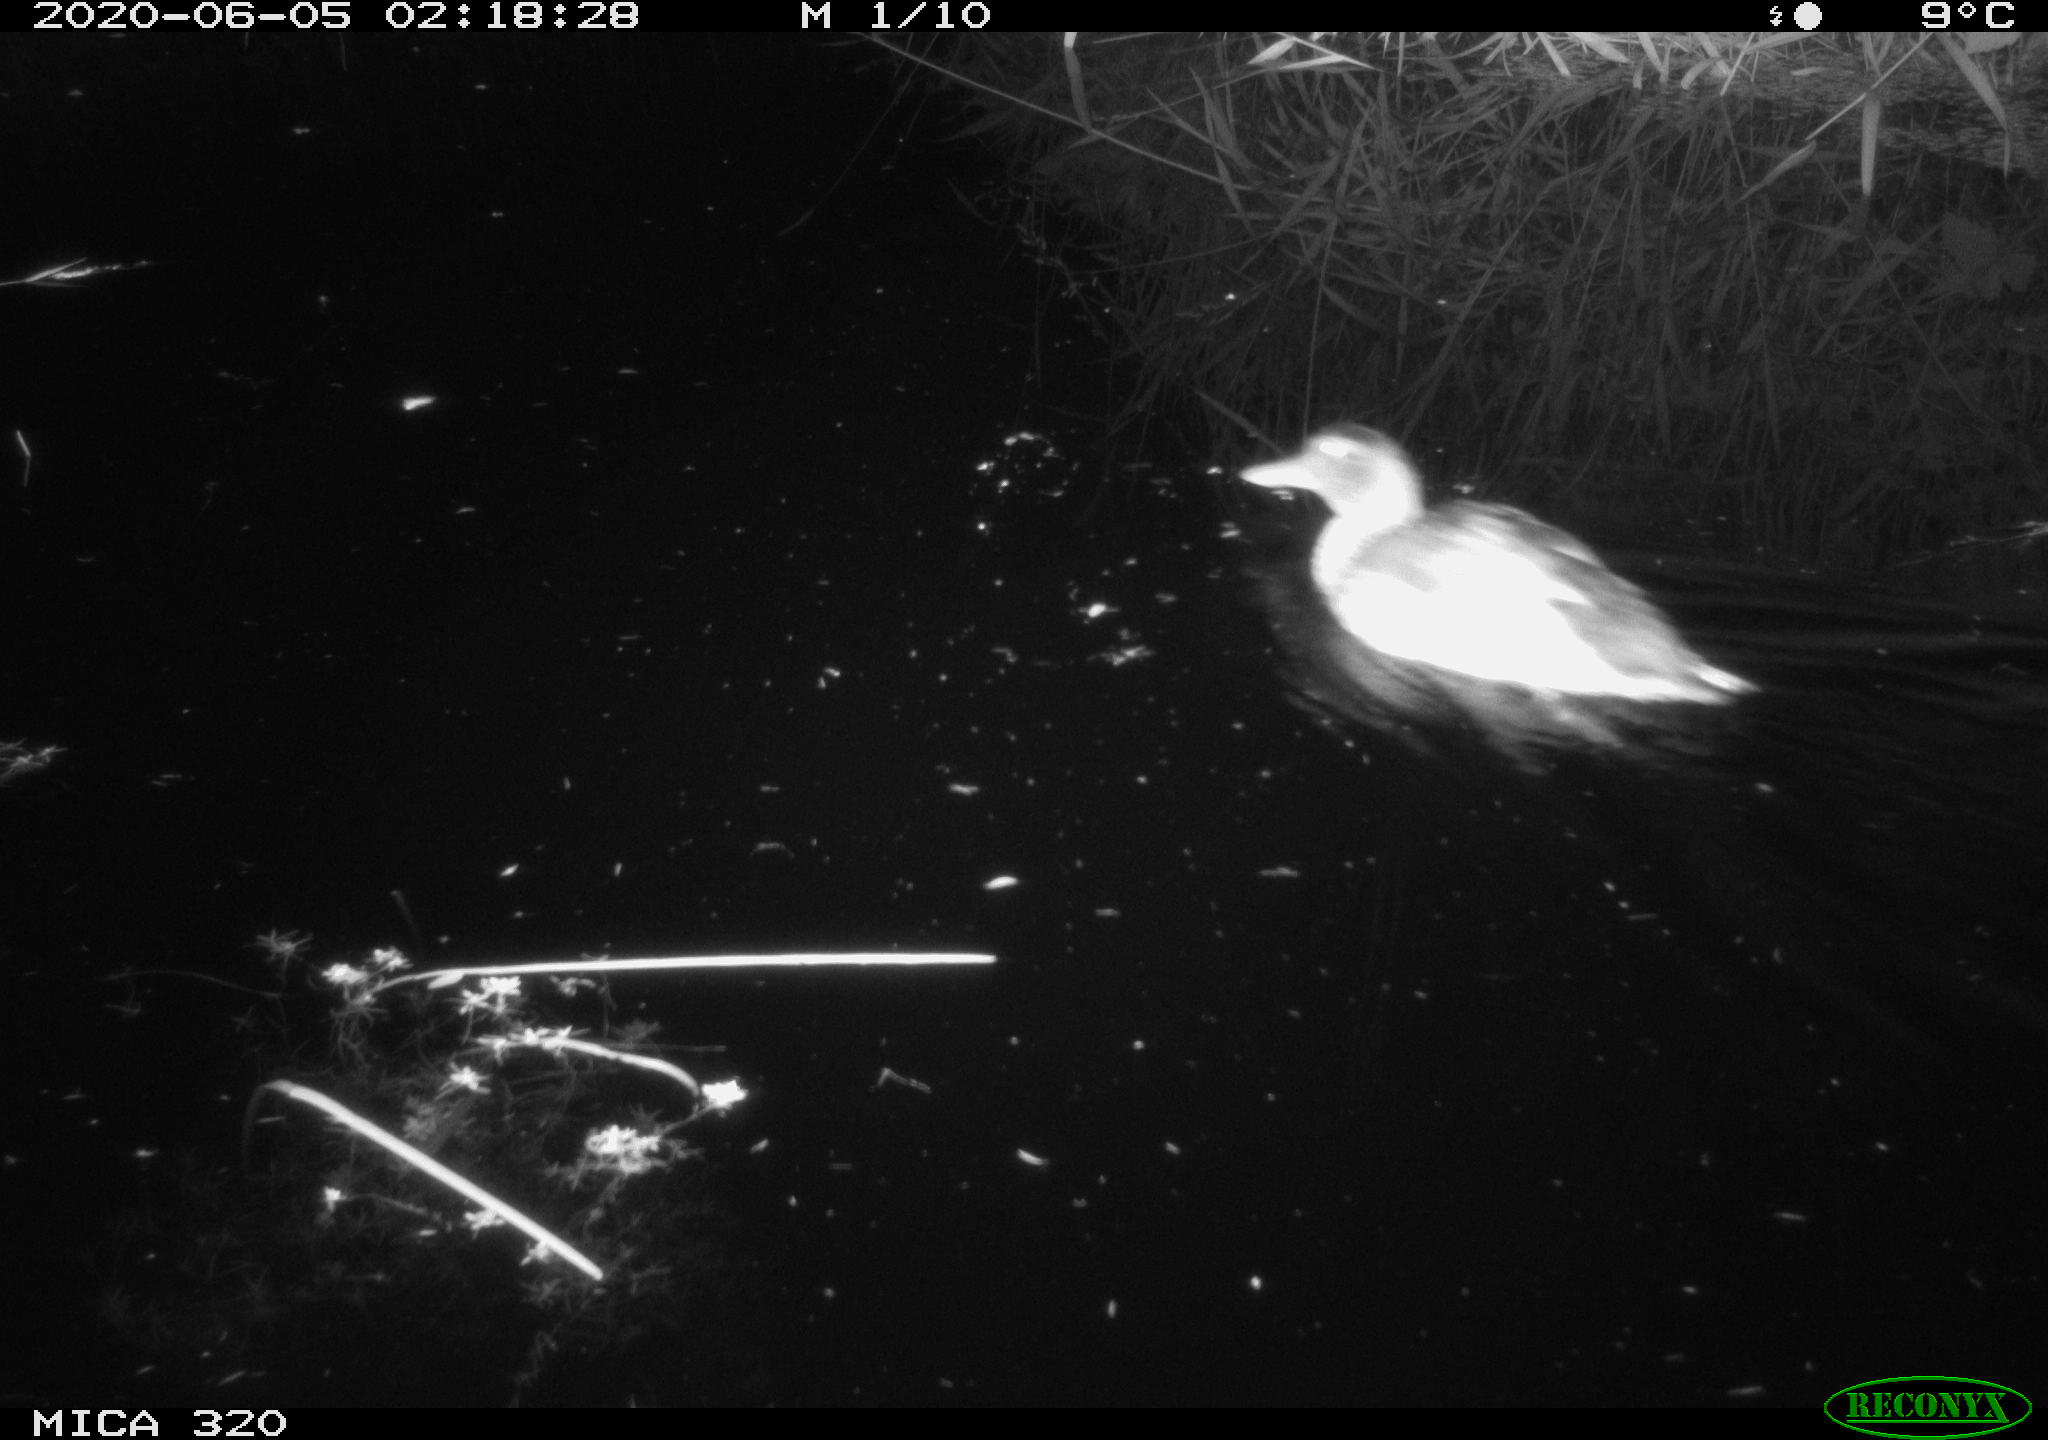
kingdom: Animalia
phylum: Chordata
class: Aves
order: Anseriformes
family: Anatidae
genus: Anas
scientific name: Anas platyrhynchos
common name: Mallard
